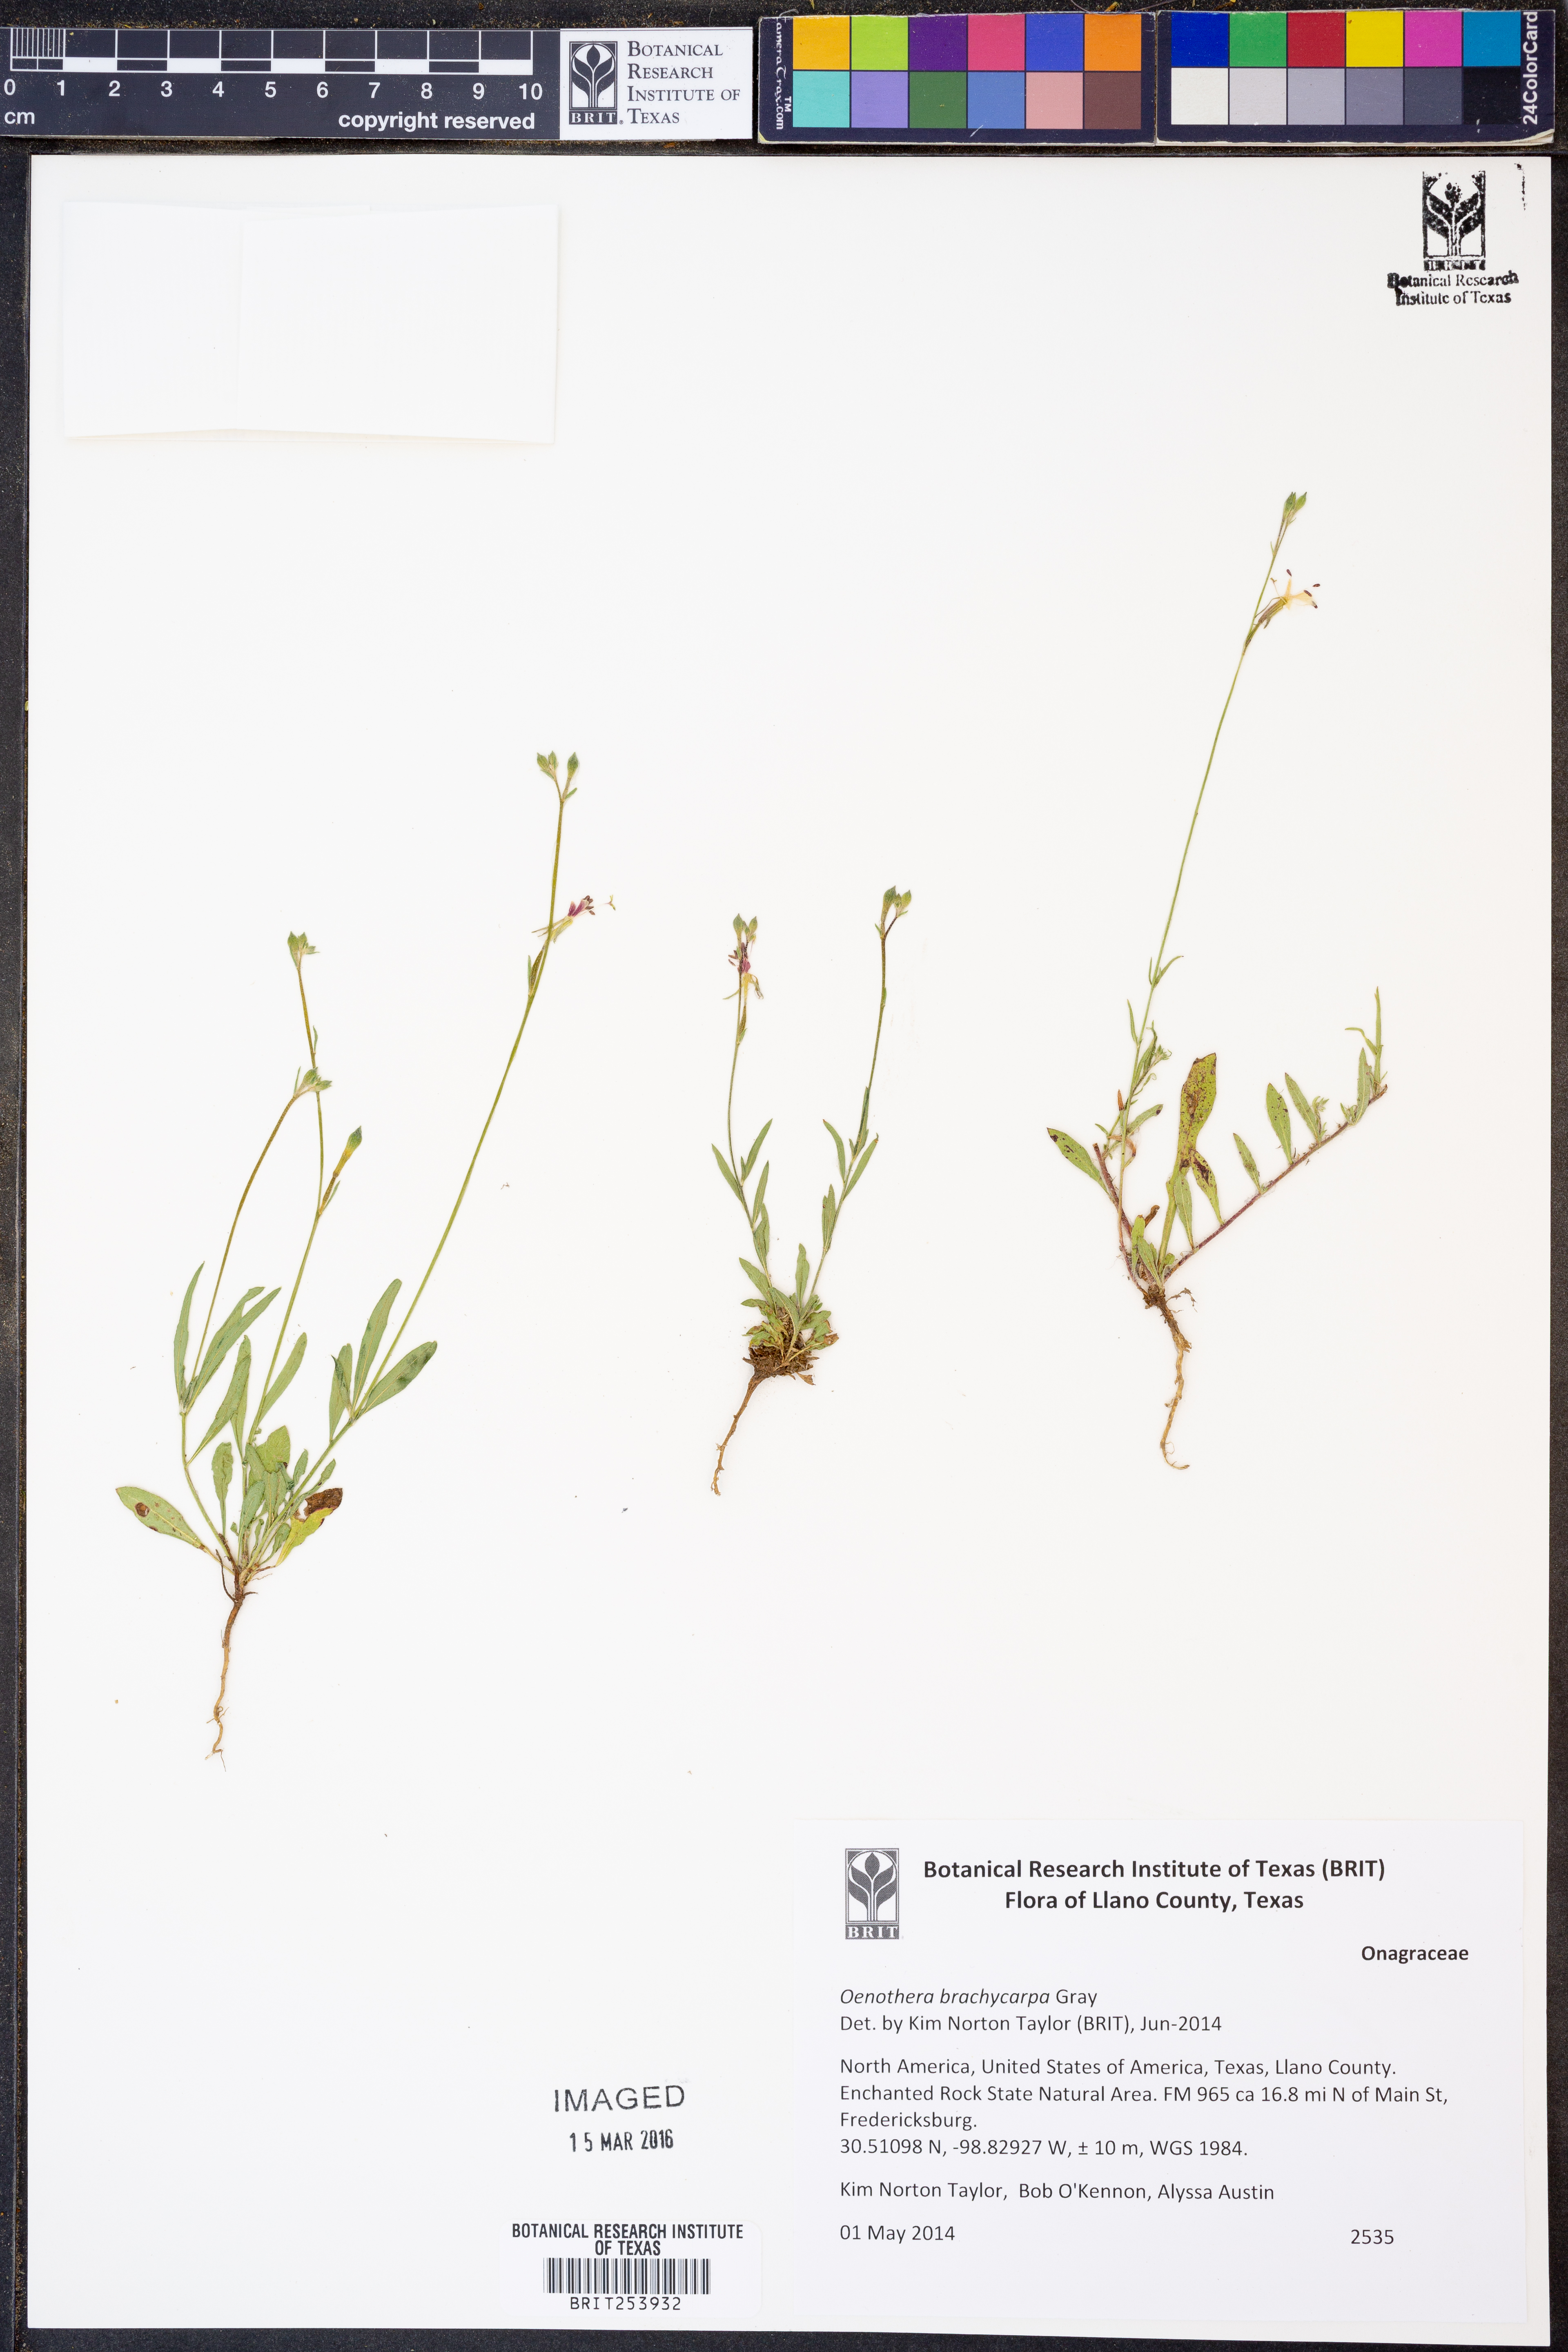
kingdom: Plantae
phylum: Tracheophyta
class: Magnoliopsida
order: Myrtales
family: Onagraceae
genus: Oenothera
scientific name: Oenothera brachycarpa
